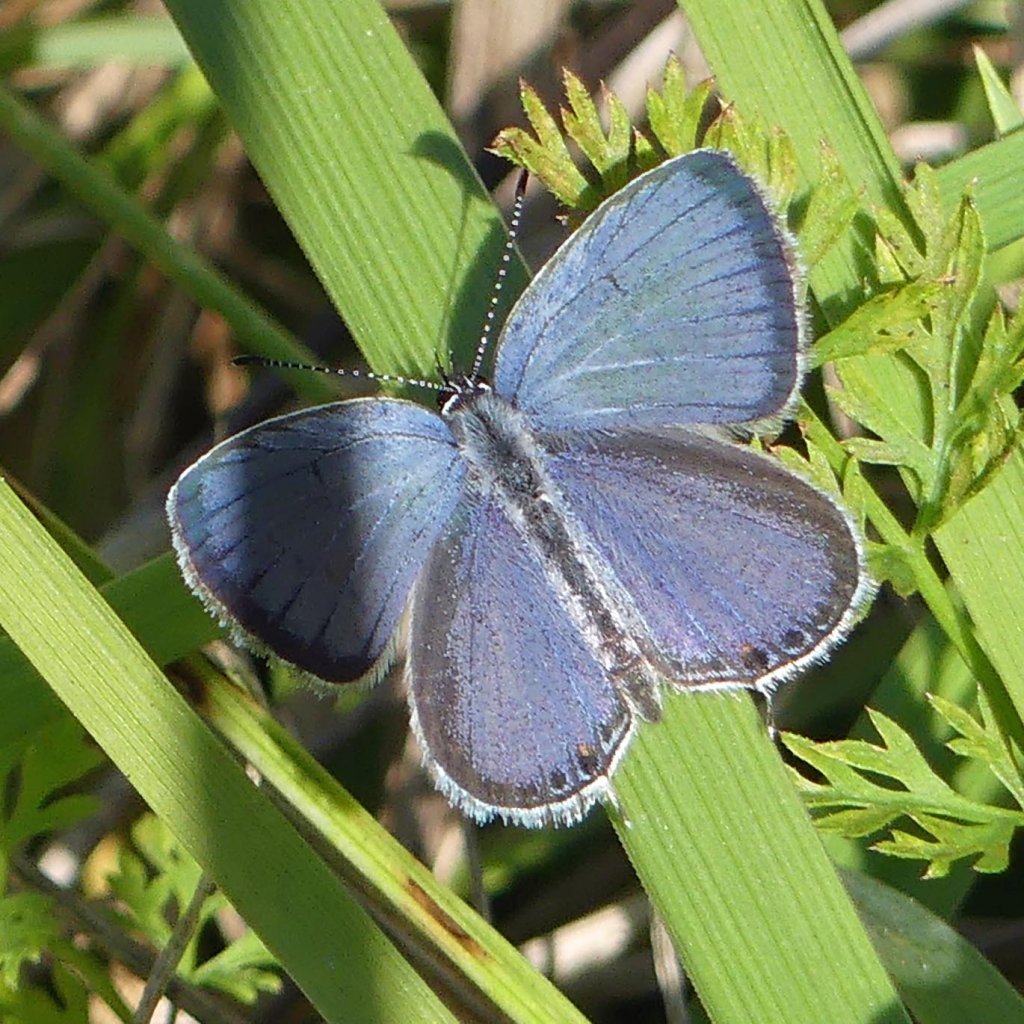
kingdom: Animalia
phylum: Arthropoda
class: Insecta
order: Lepidoptera
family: Lycaenidae
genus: Elkalyce
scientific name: Elkalyce comyntas
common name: Eastern Tailed-Blue
